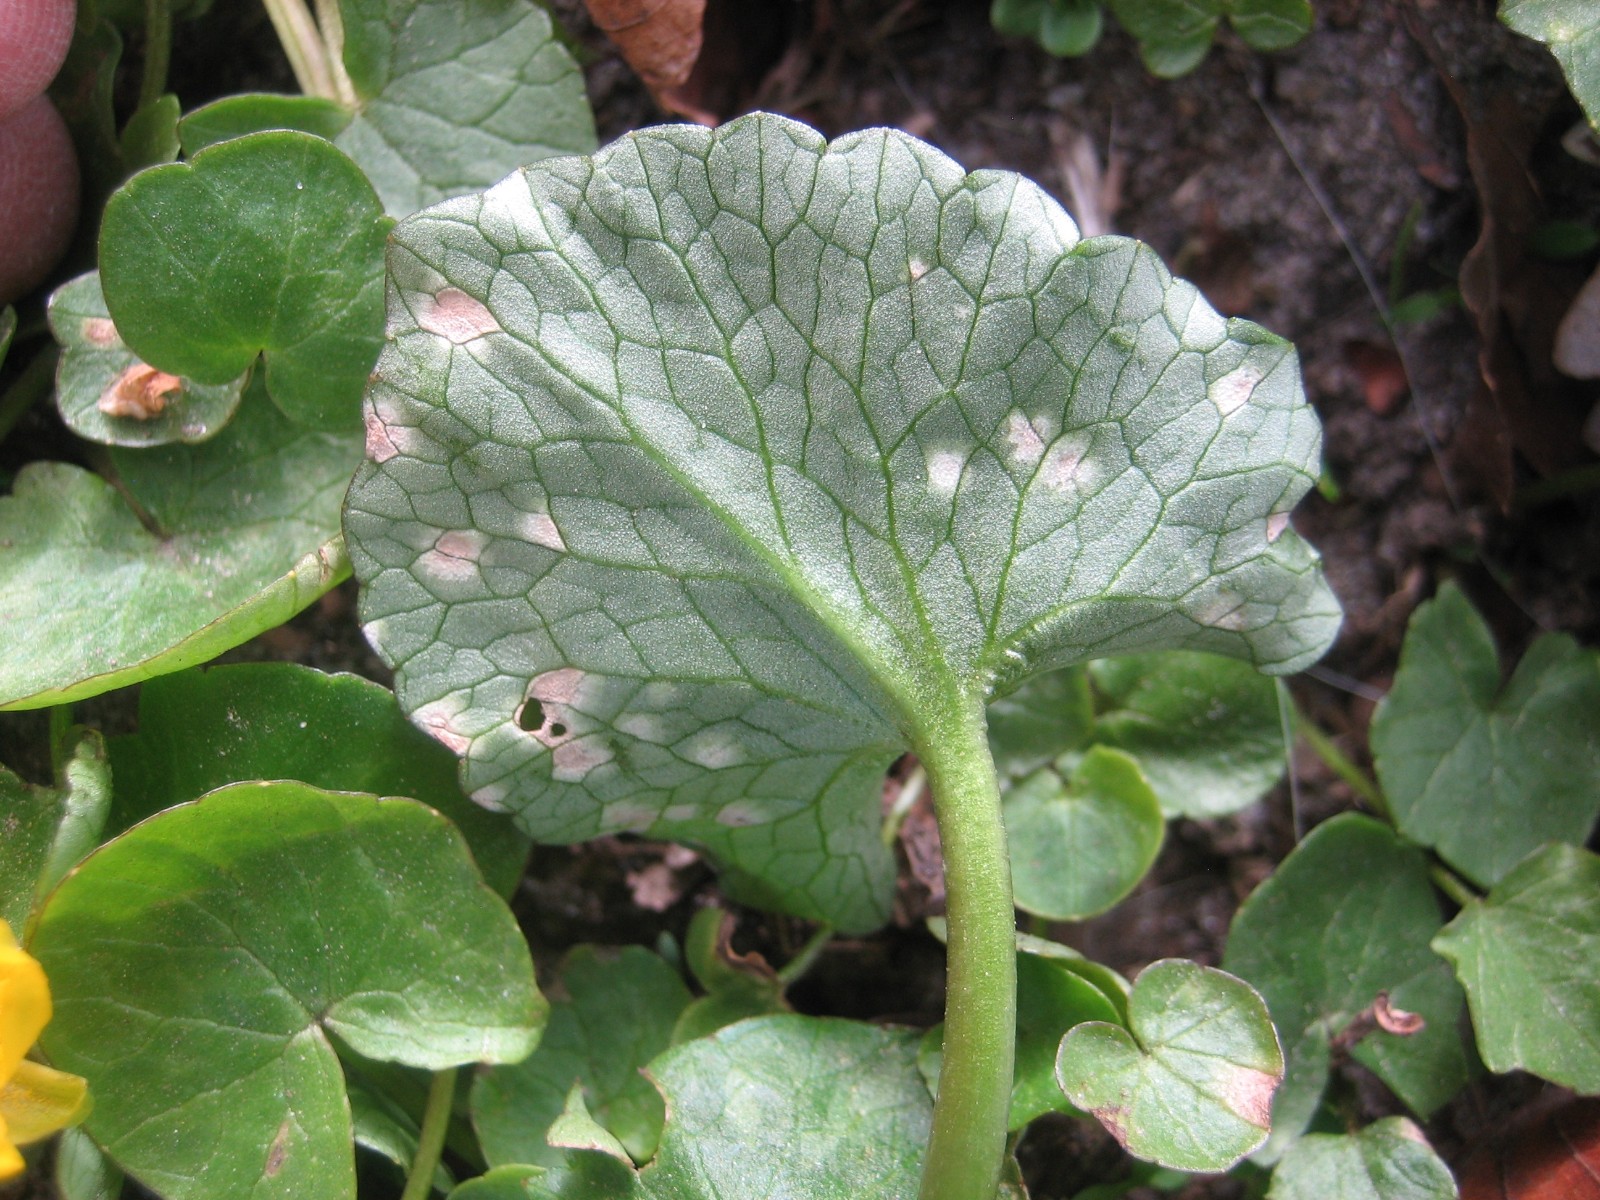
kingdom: Fungi
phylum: Basidiomycota
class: Exobasidiomycetes
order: Entylomatales
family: Entylomataceae
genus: Entyloma
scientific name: Entyloma ficariae
